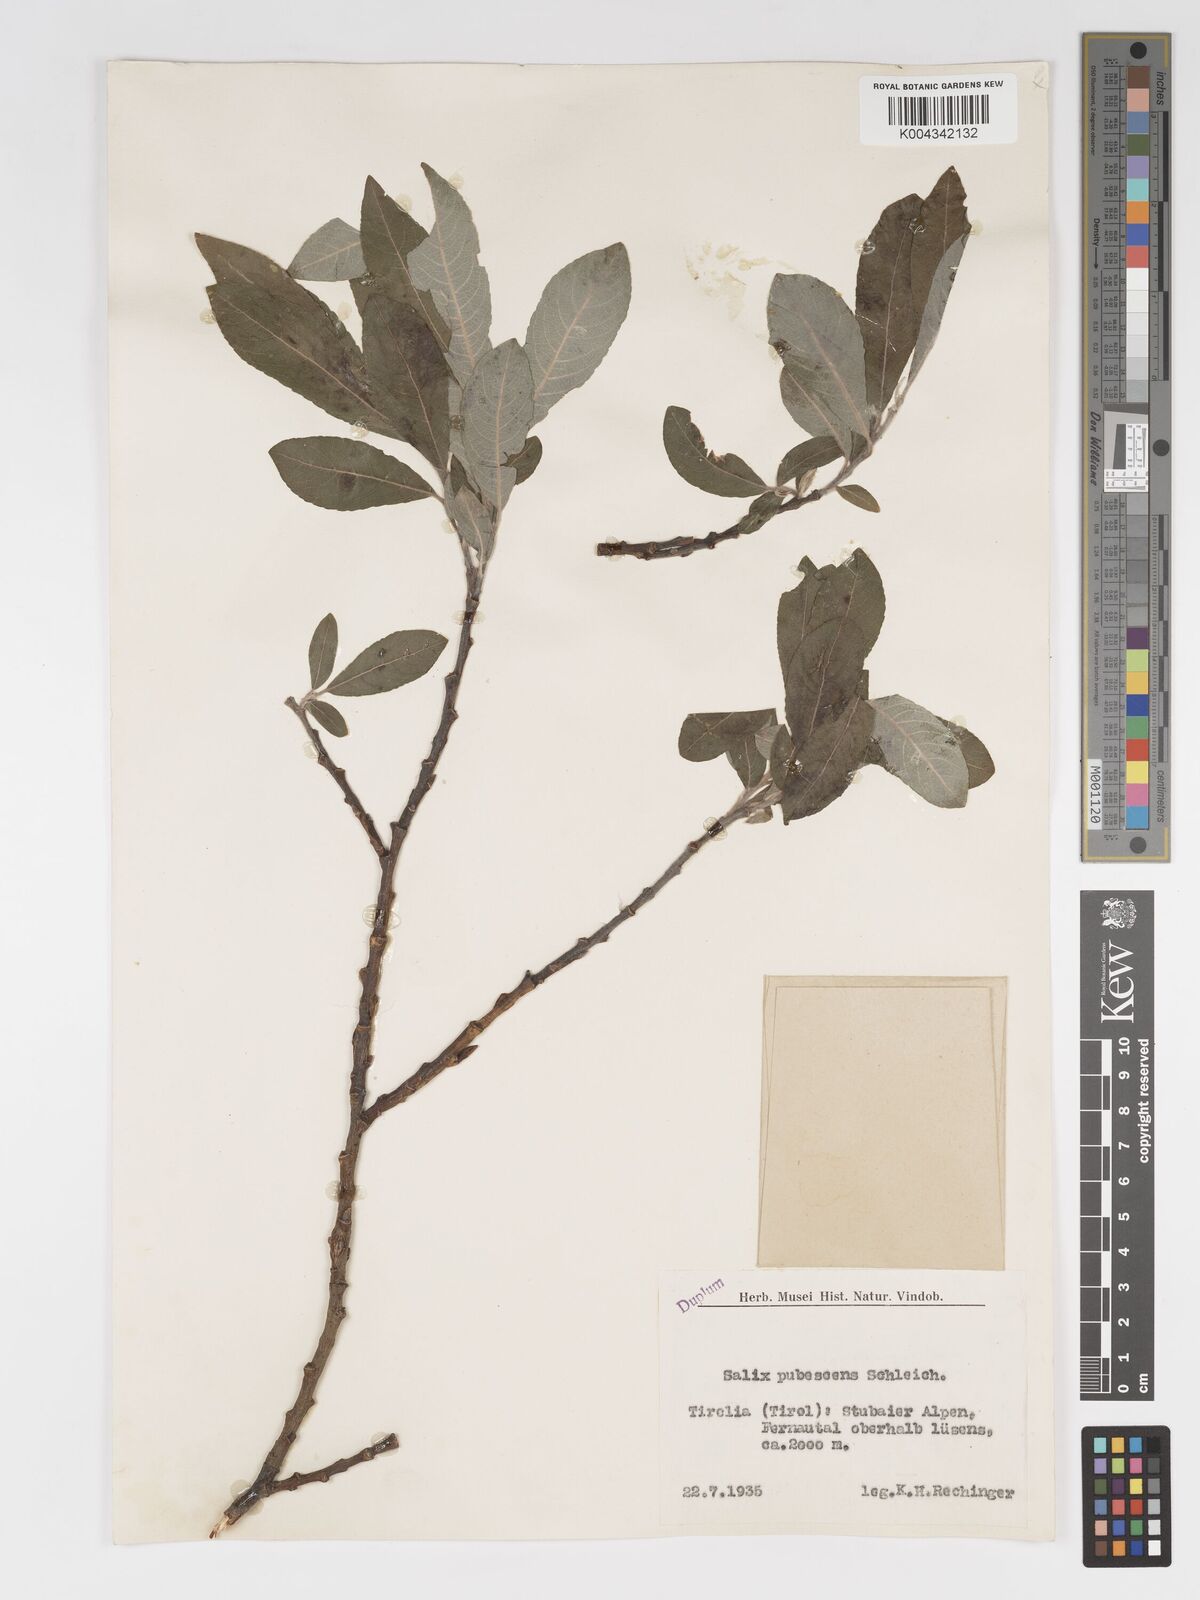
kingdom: Plantae
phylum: Tracheophyta
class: Magnoliopsida
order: Malpighiales
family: Salicaceae
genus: Salix
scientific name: Salix laggeri
